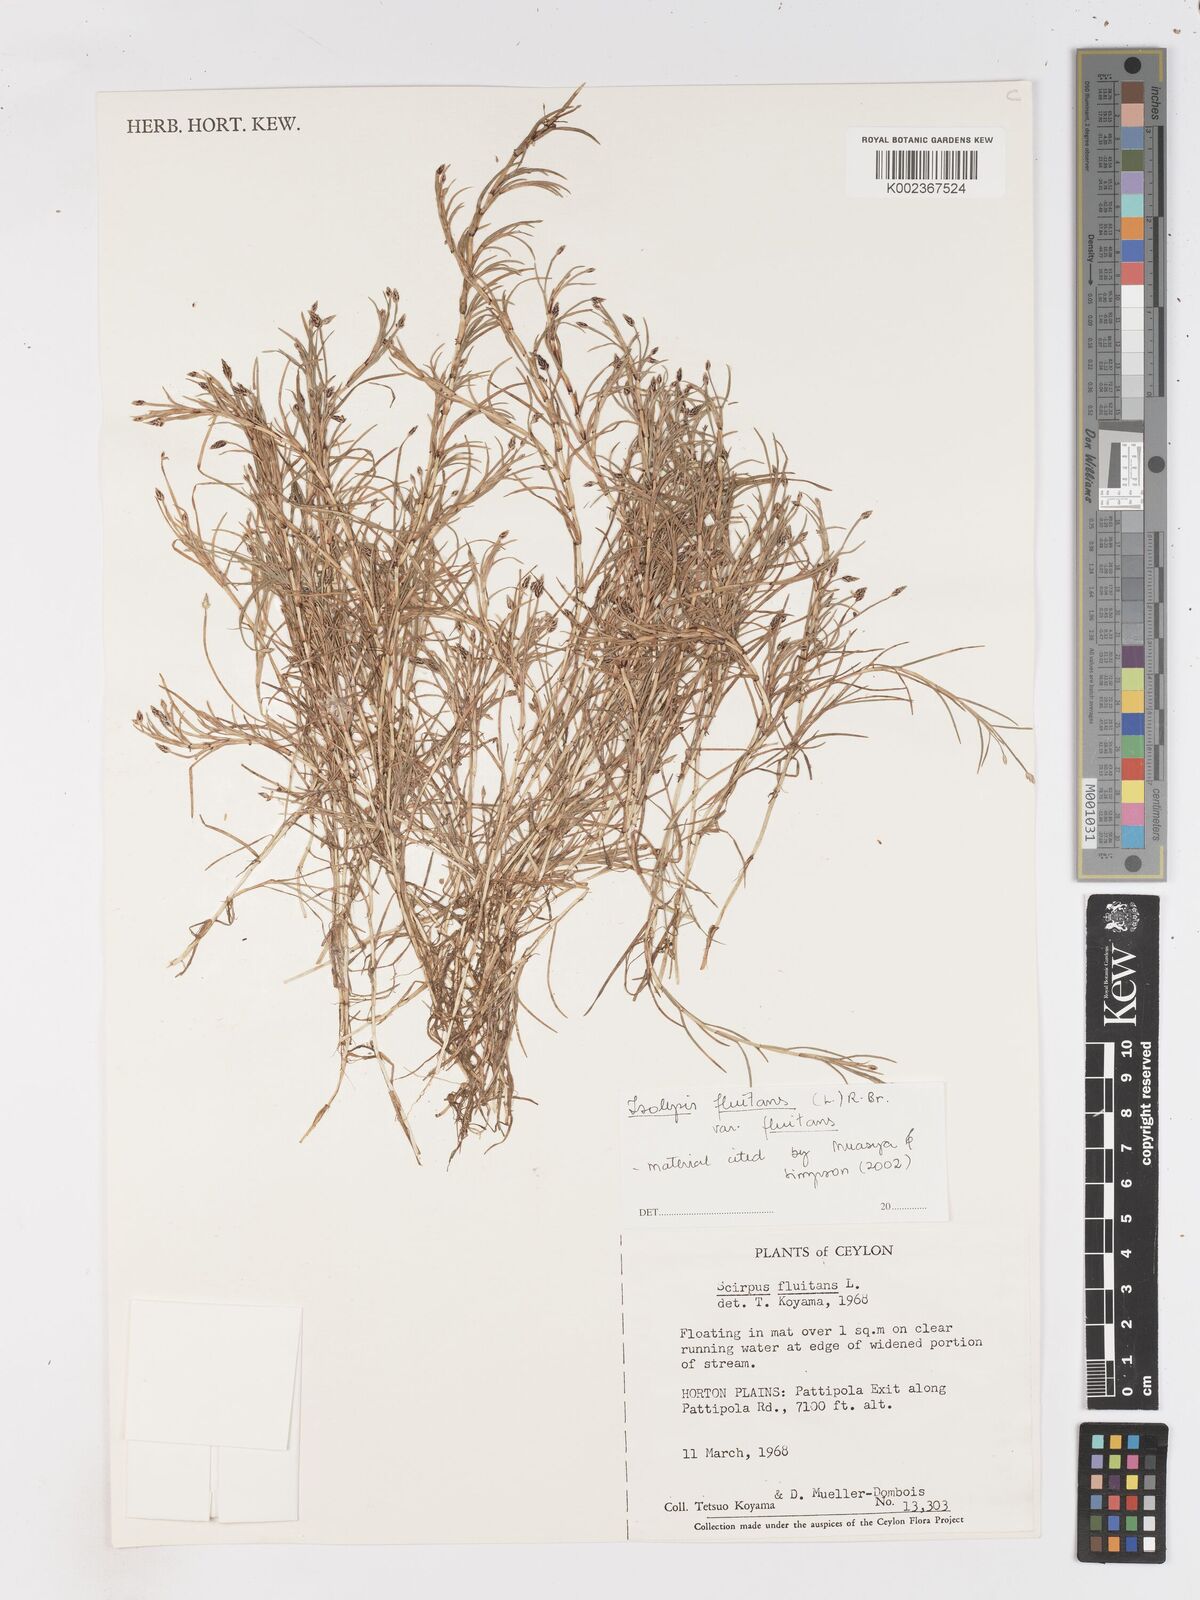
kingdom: Plantae
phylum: Tracheophyta
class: Liliopsida
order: Poales
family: Cyperaceae
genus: Isolepis
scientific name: Isolepis fluitans
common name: Floating club-rush
